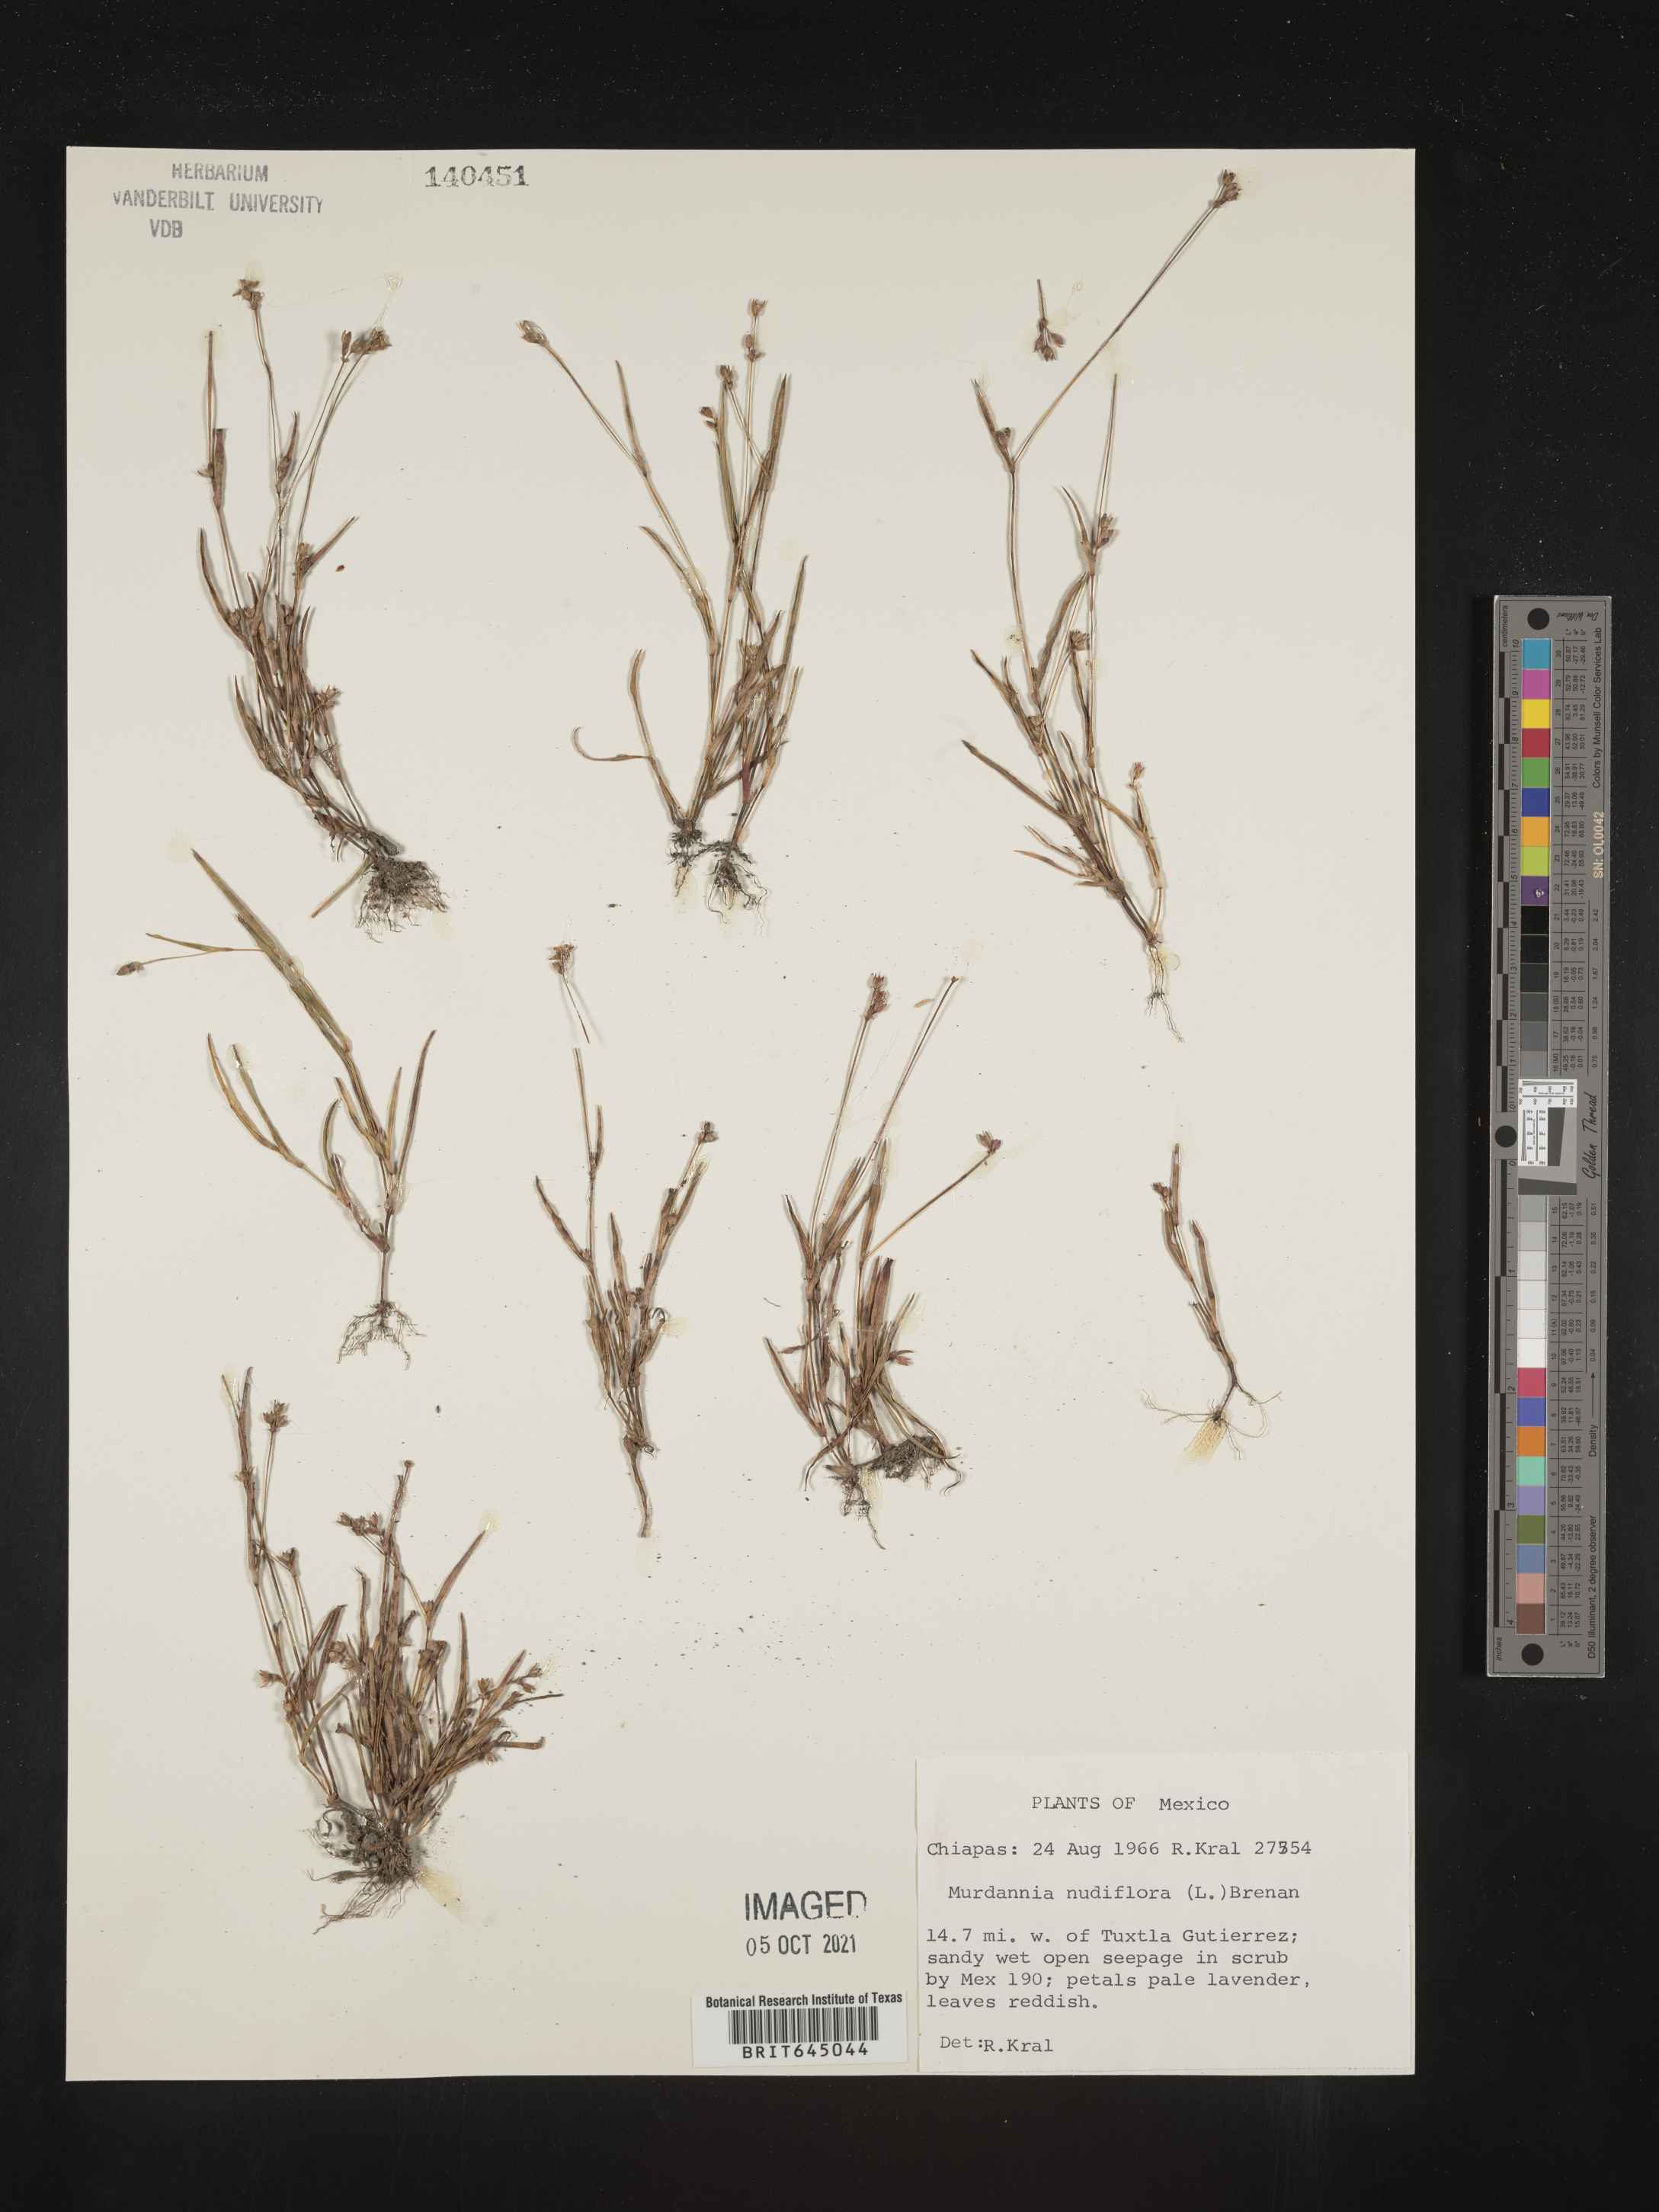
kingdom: Plantae
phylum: Tracheophyta
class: Liliopsida
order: Commelinales
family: Commelinaceae
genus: Murdannia
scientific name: Murdannia
